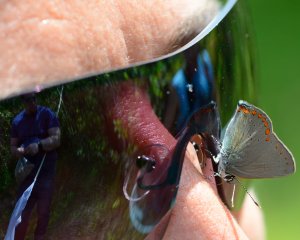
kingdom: Animalia
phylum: Arthropoda
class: Insecta
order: Lepidoptera
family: Lycaenidae
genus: Harkenclenus
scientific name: Harkenclenus titus
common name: Coral Hairstreak
